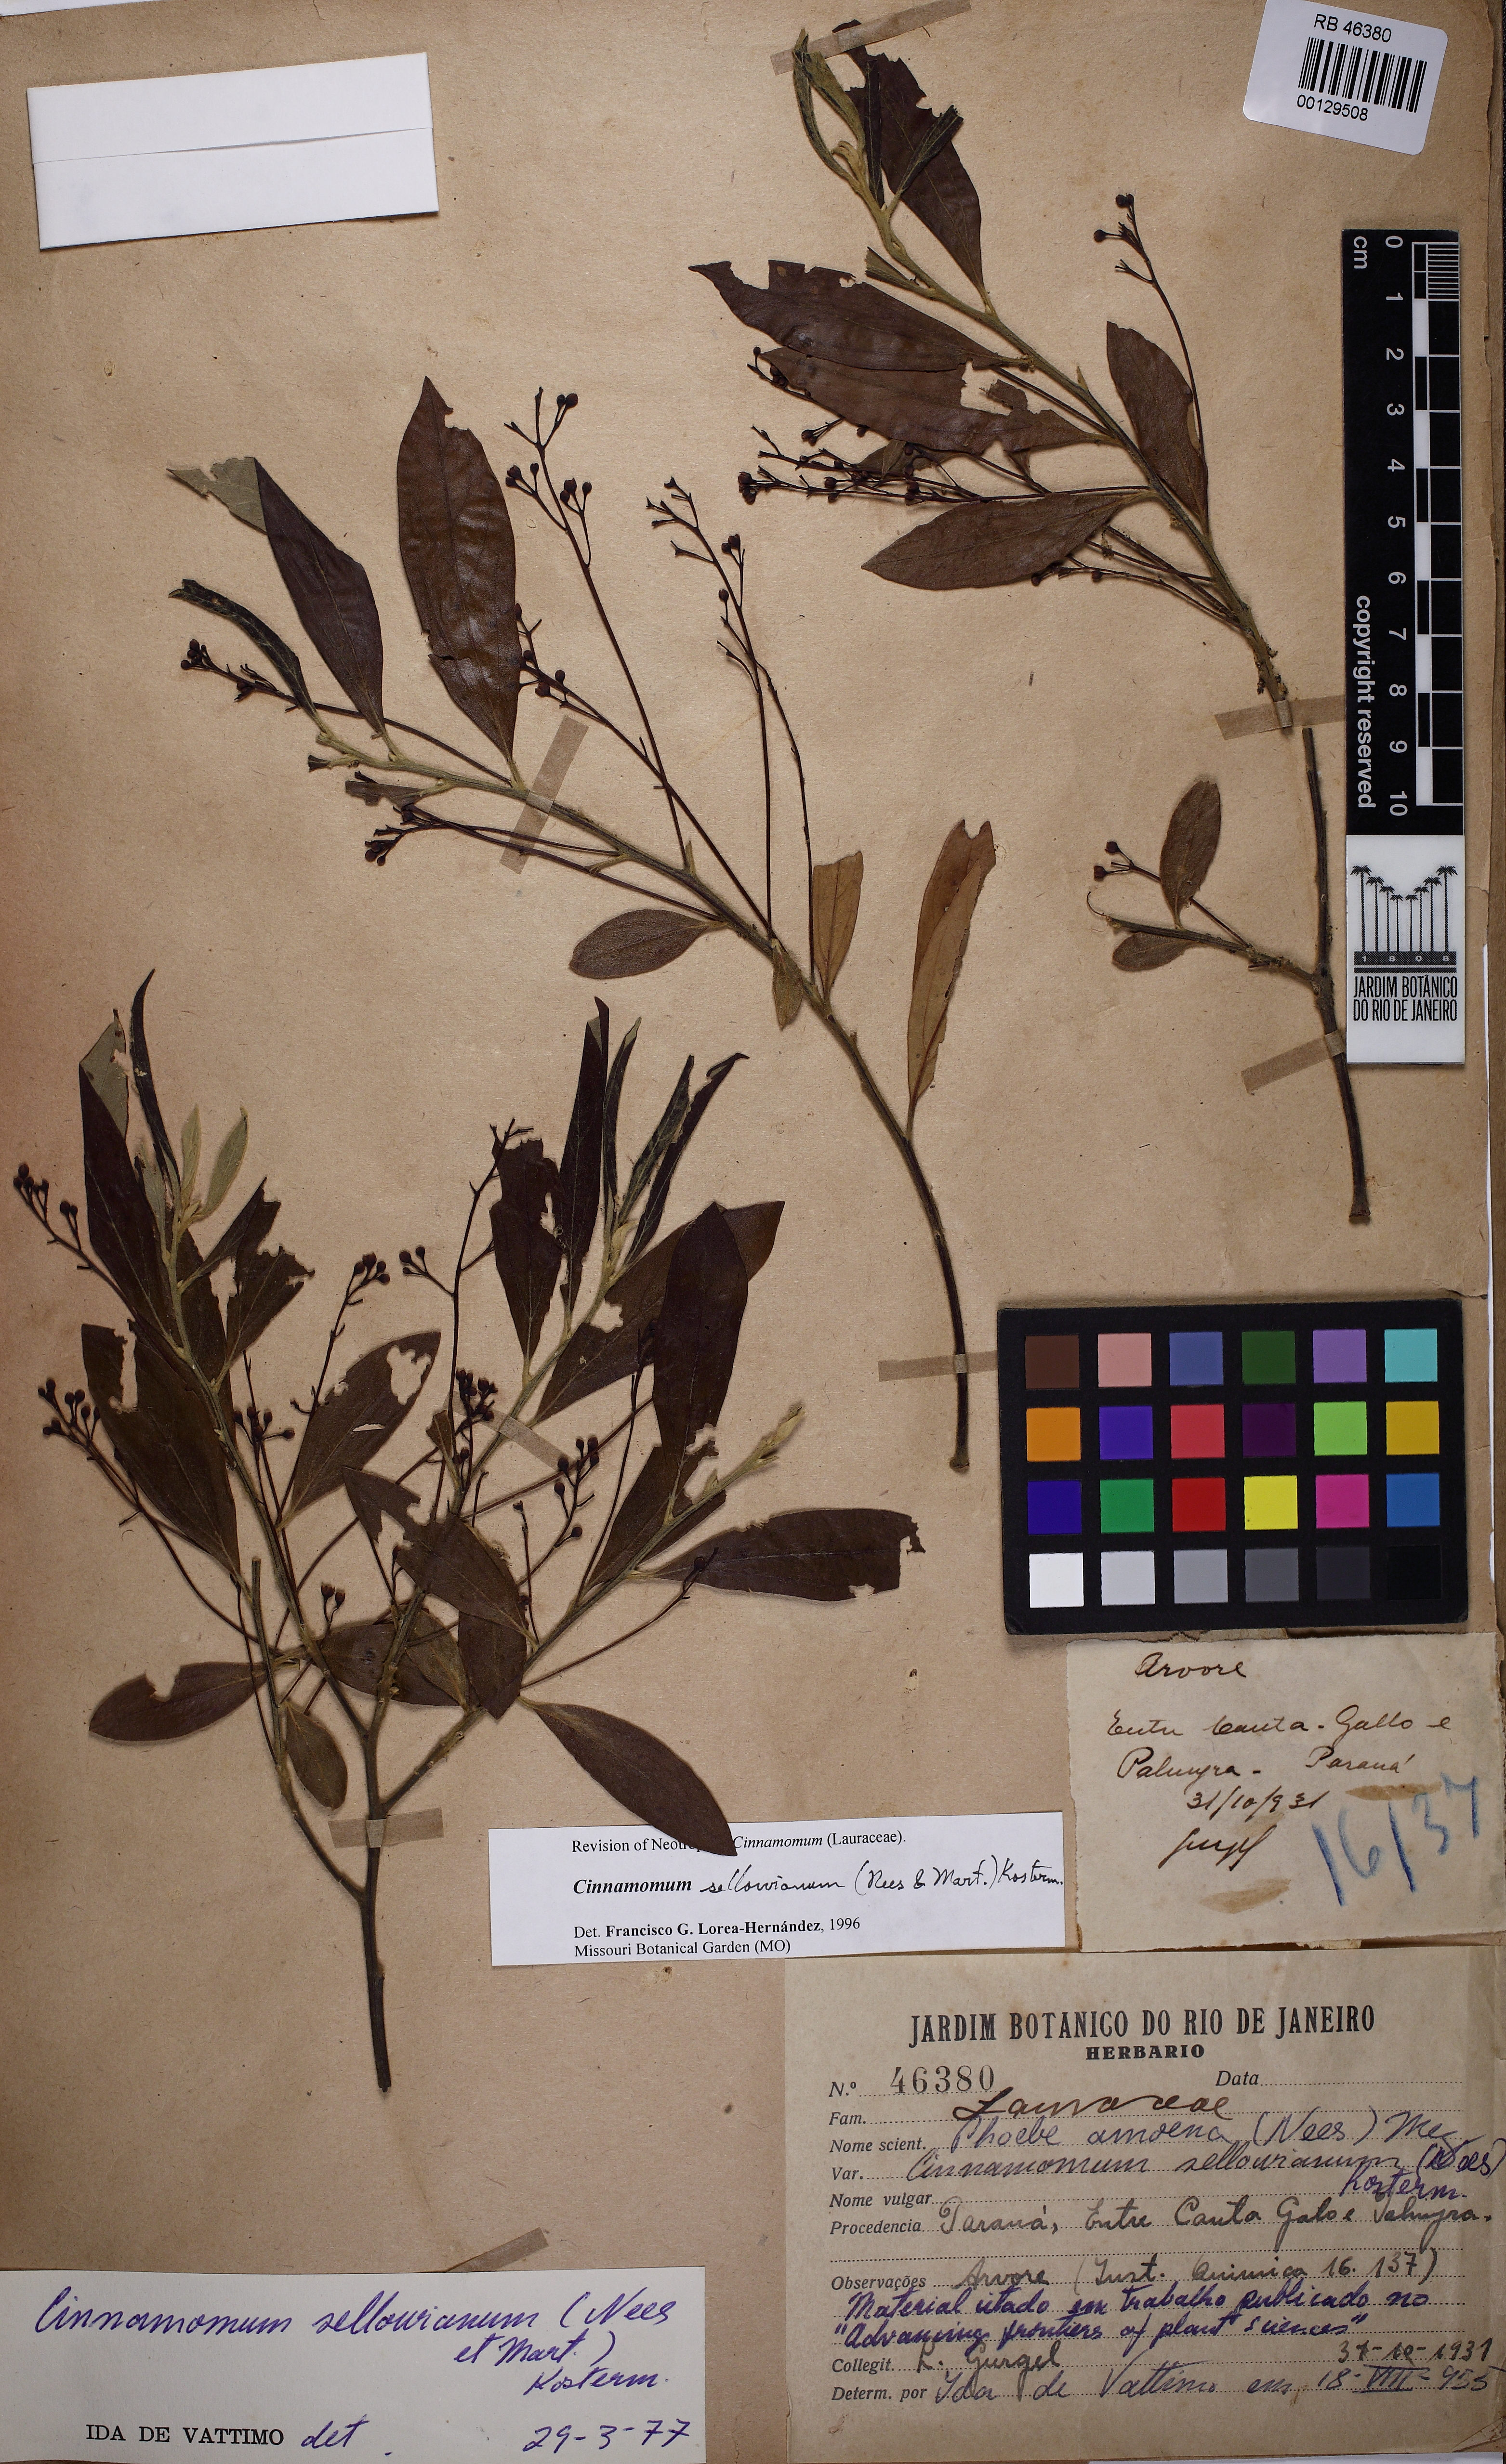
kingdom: Plantae
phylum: Tracheophyta
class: Magnoliopsida
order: Laurales
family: Lauraceae
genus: Aiouea
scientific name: Aiouea sellowiana
